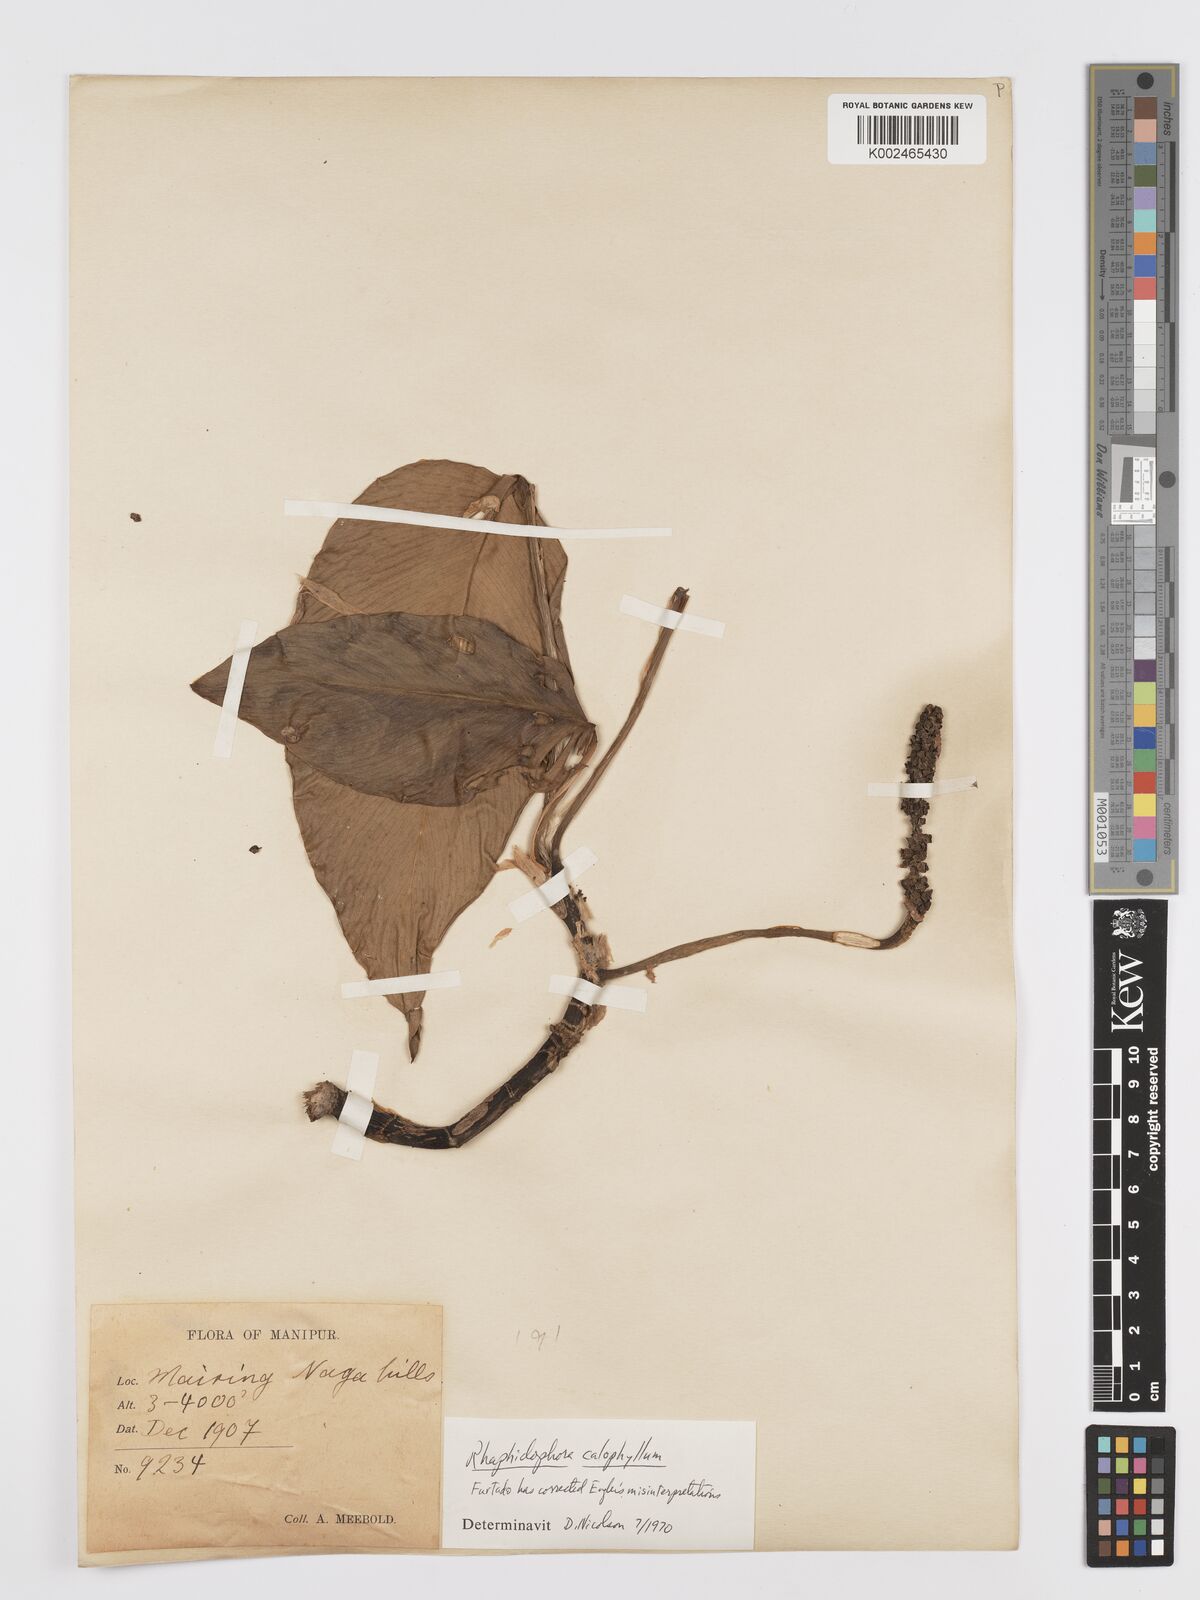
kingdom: Plantae
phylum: Tracheophyta
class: Liliopsida
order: Alismatales
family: Araceae
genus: Rhaphidophora
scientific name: Rhaphidophora calophylla
